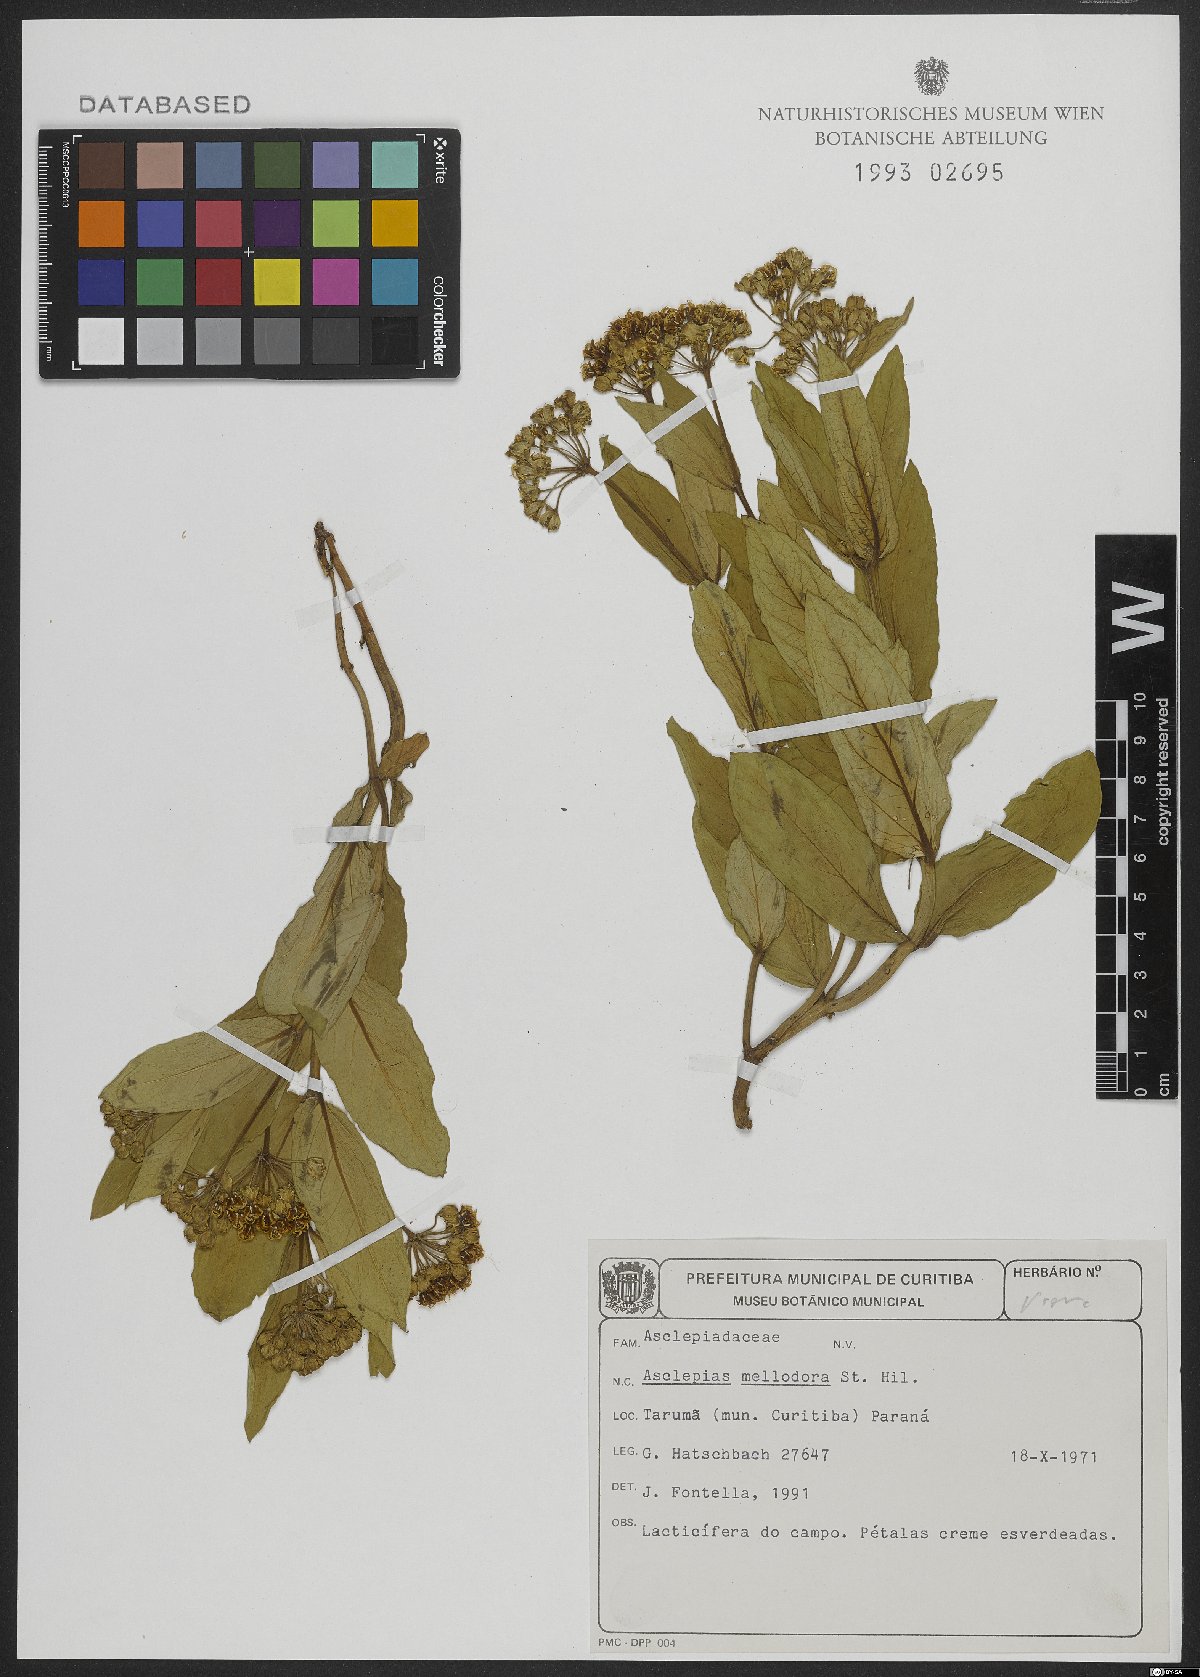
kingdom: Plantae
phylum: Tracheophyta
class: Magnoliopsida
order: Gentianales
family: Apocynaceae
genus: Asclepias
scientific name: Asclepias mellodora
